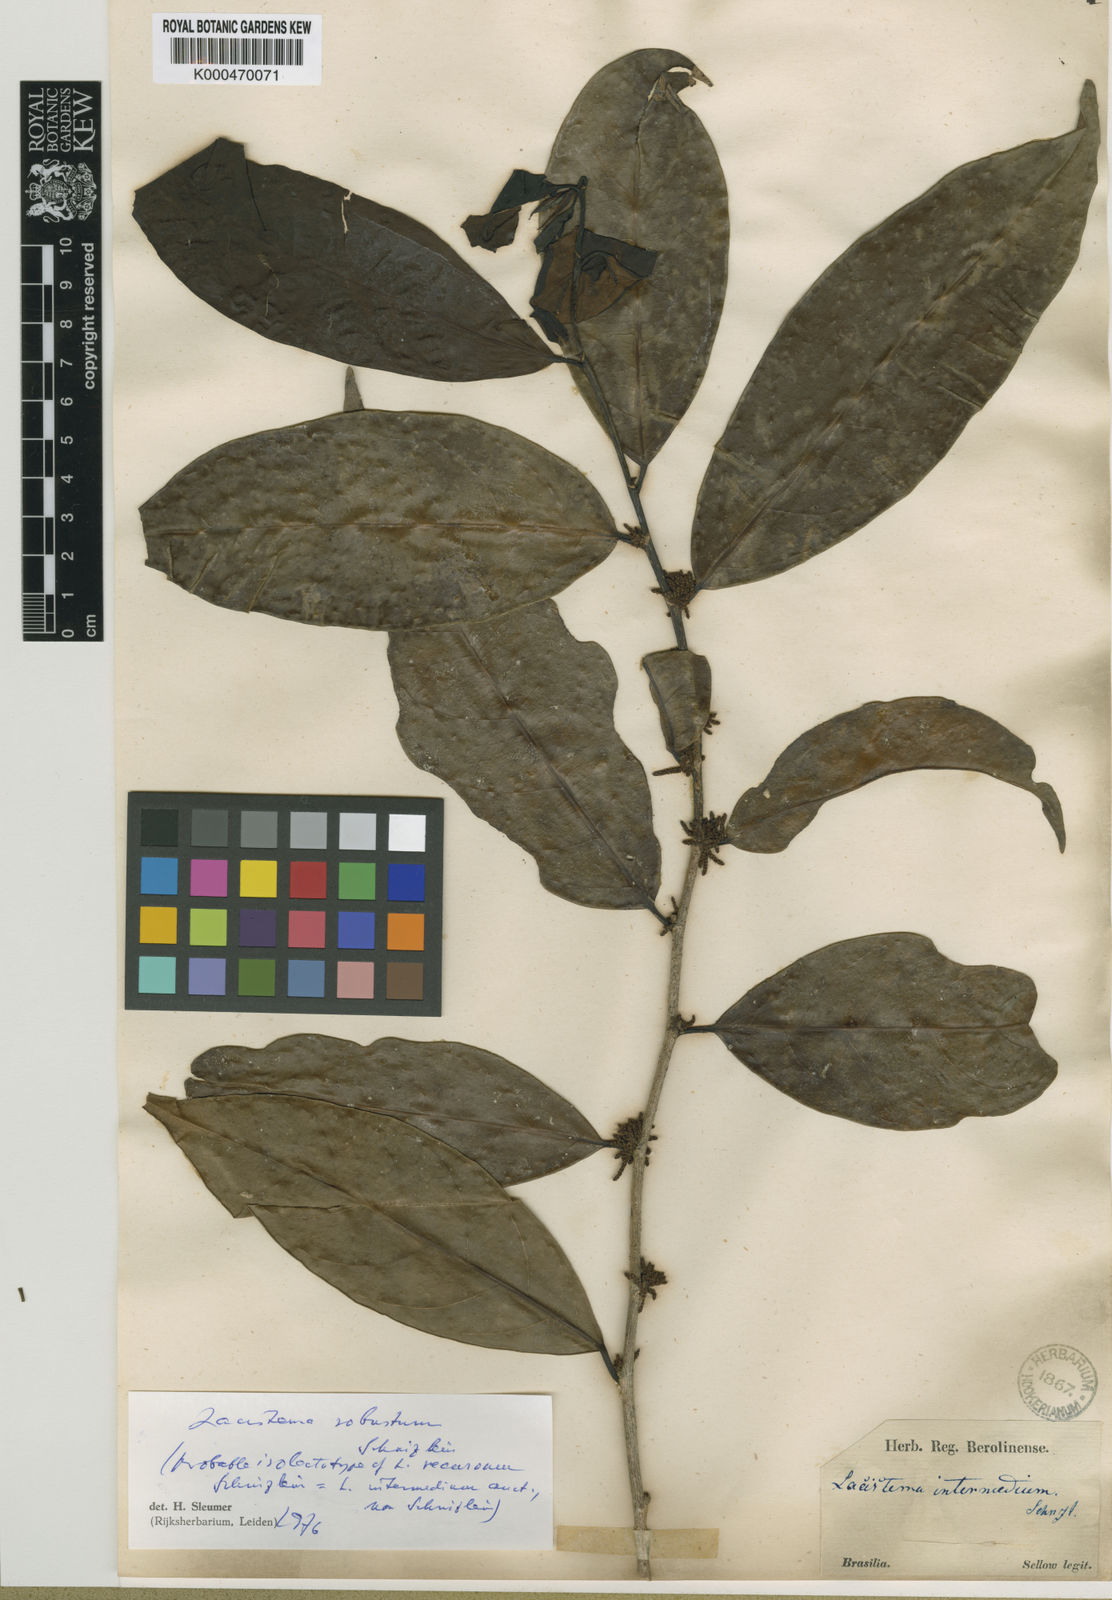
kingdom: Plantae
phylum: Tracheophyta
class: Magnoliopsida
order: Malpighiales
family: Lacistemataceae
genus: Lacistema
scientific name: Lacistema polystachyum
